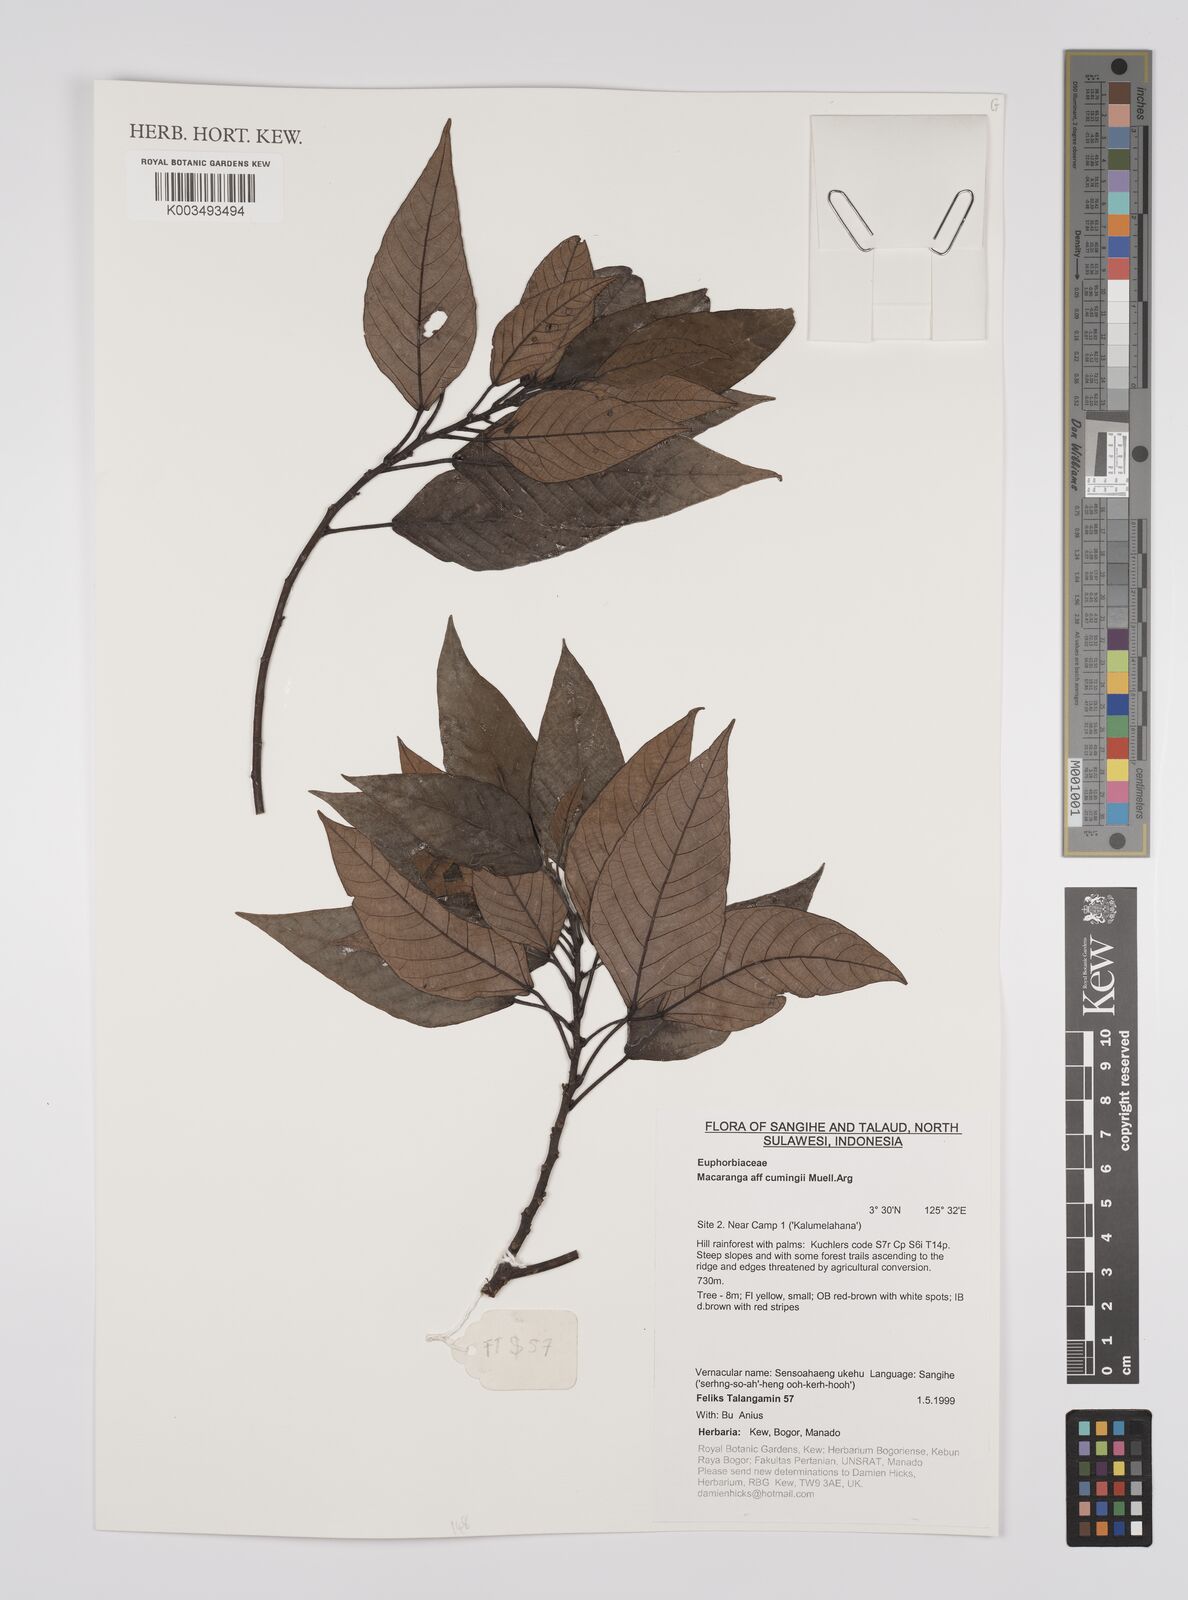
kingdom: Plantae
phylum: Tracheophyta
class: Magnoliopsida
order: Malpighiales
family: Euphorbiaceae
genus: Macaranga
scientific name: Macaranga cumingii
